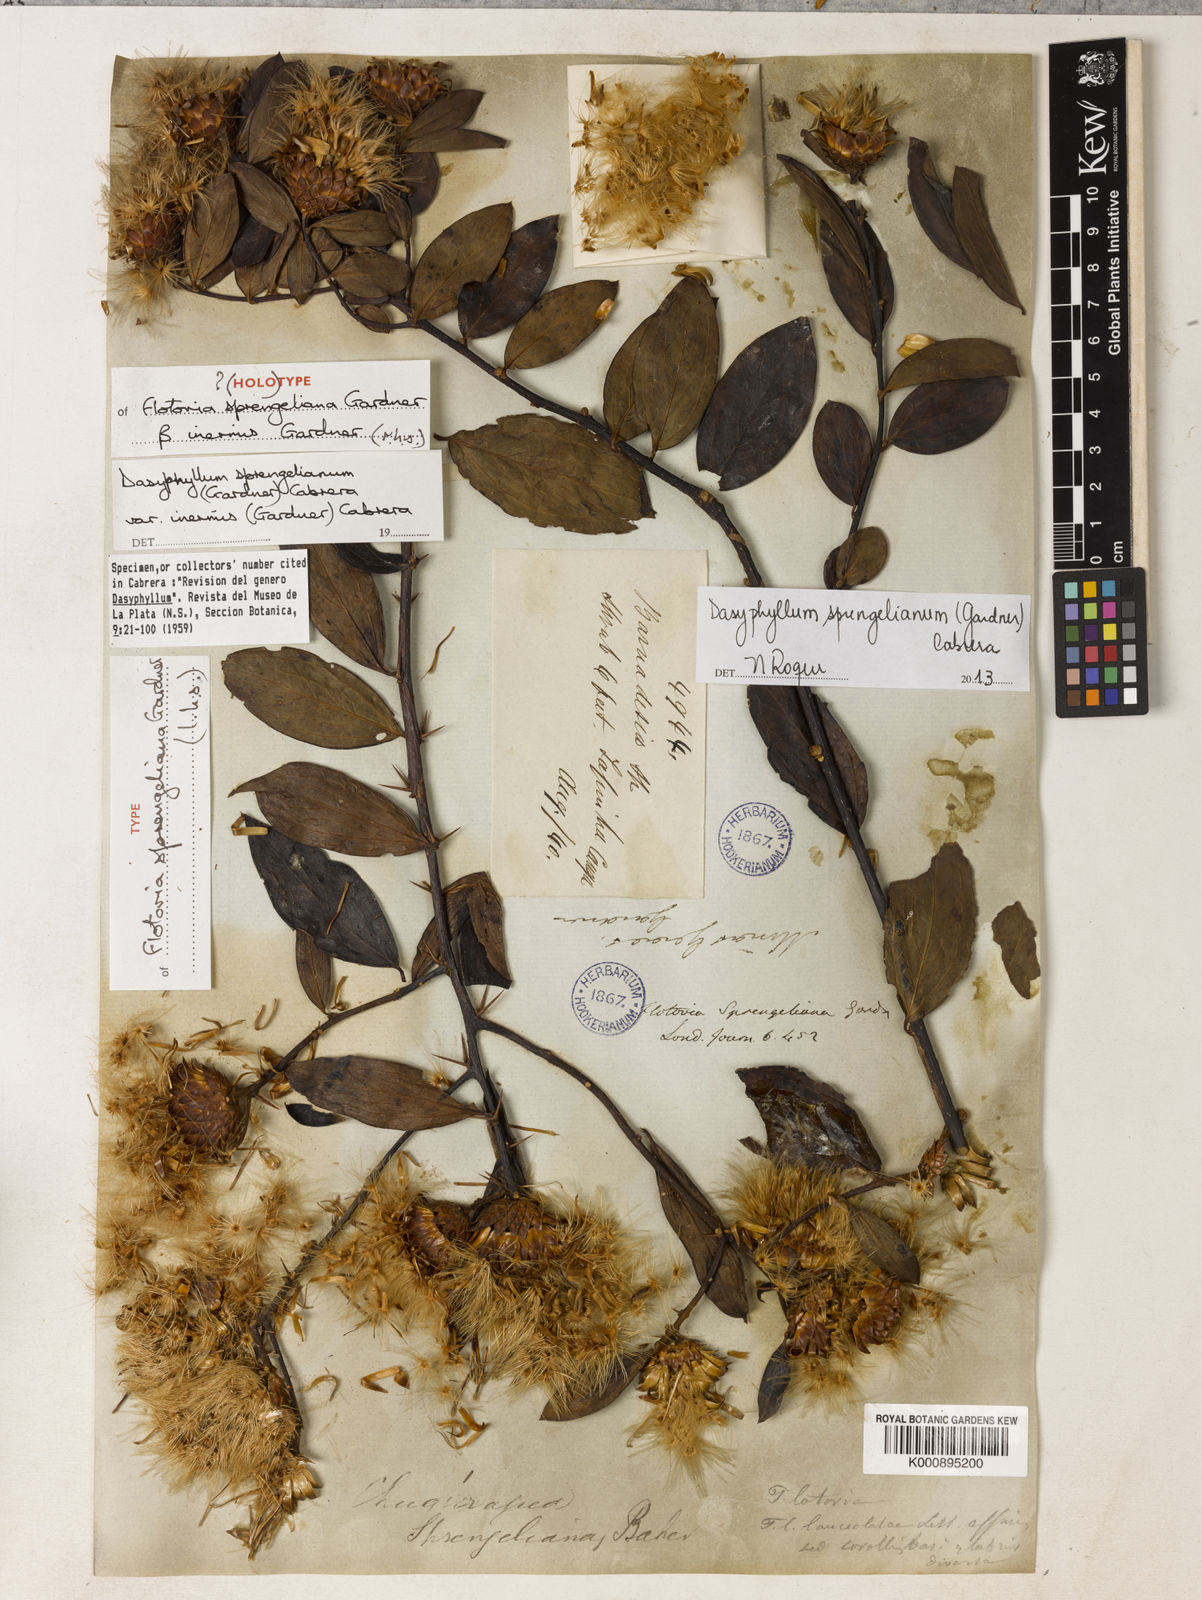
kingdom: Plantae
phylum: Tracheophyta
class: Magnoliopsida
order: Asterales
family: Asteraceae
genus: Dasyphyllum
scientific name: Dasyphyllum sprengelianum
